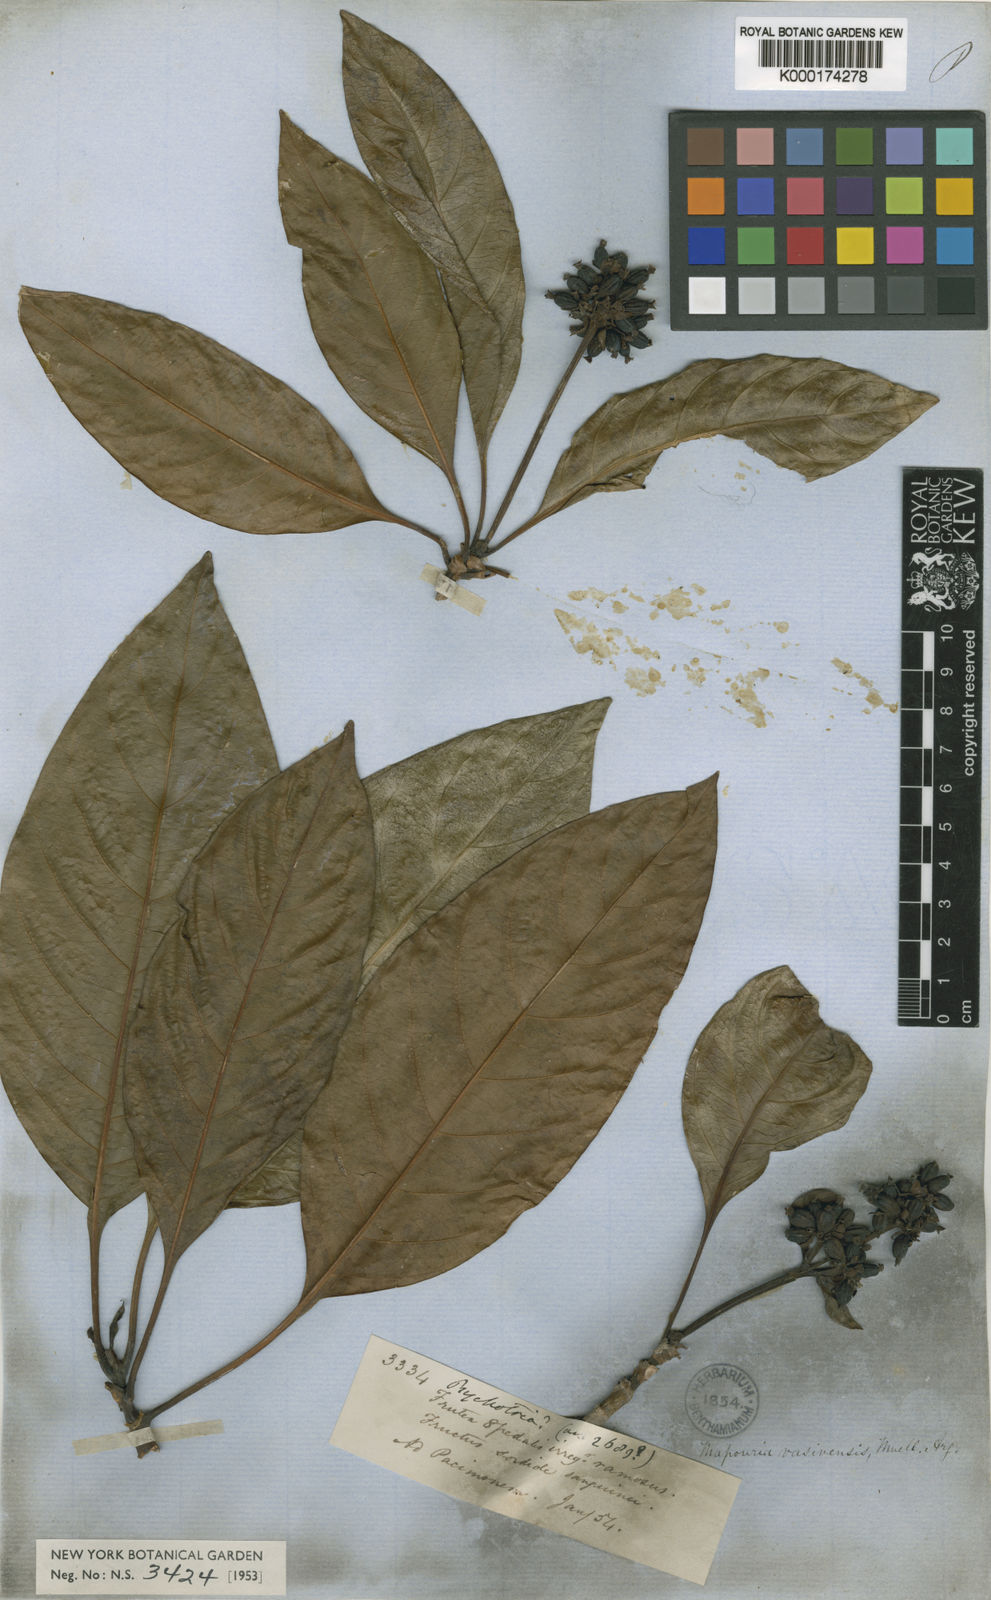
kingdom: Plantae
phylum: Tracheophyta
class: Magnoliopsida
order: Gentianales
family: Rubiaceae
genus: Carapichea
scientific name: Carapichea
